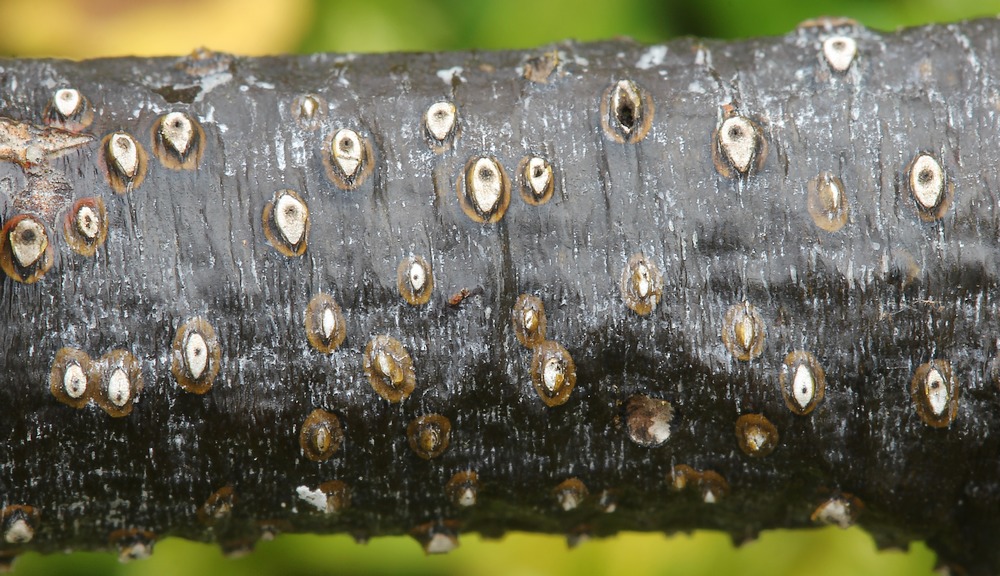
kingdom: Fungi
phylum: Ascomycota
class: Sordariomycetes
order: Diaporthales
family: Valsaceae
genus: Cytospora
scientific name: Cytospora
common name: kulknippe
